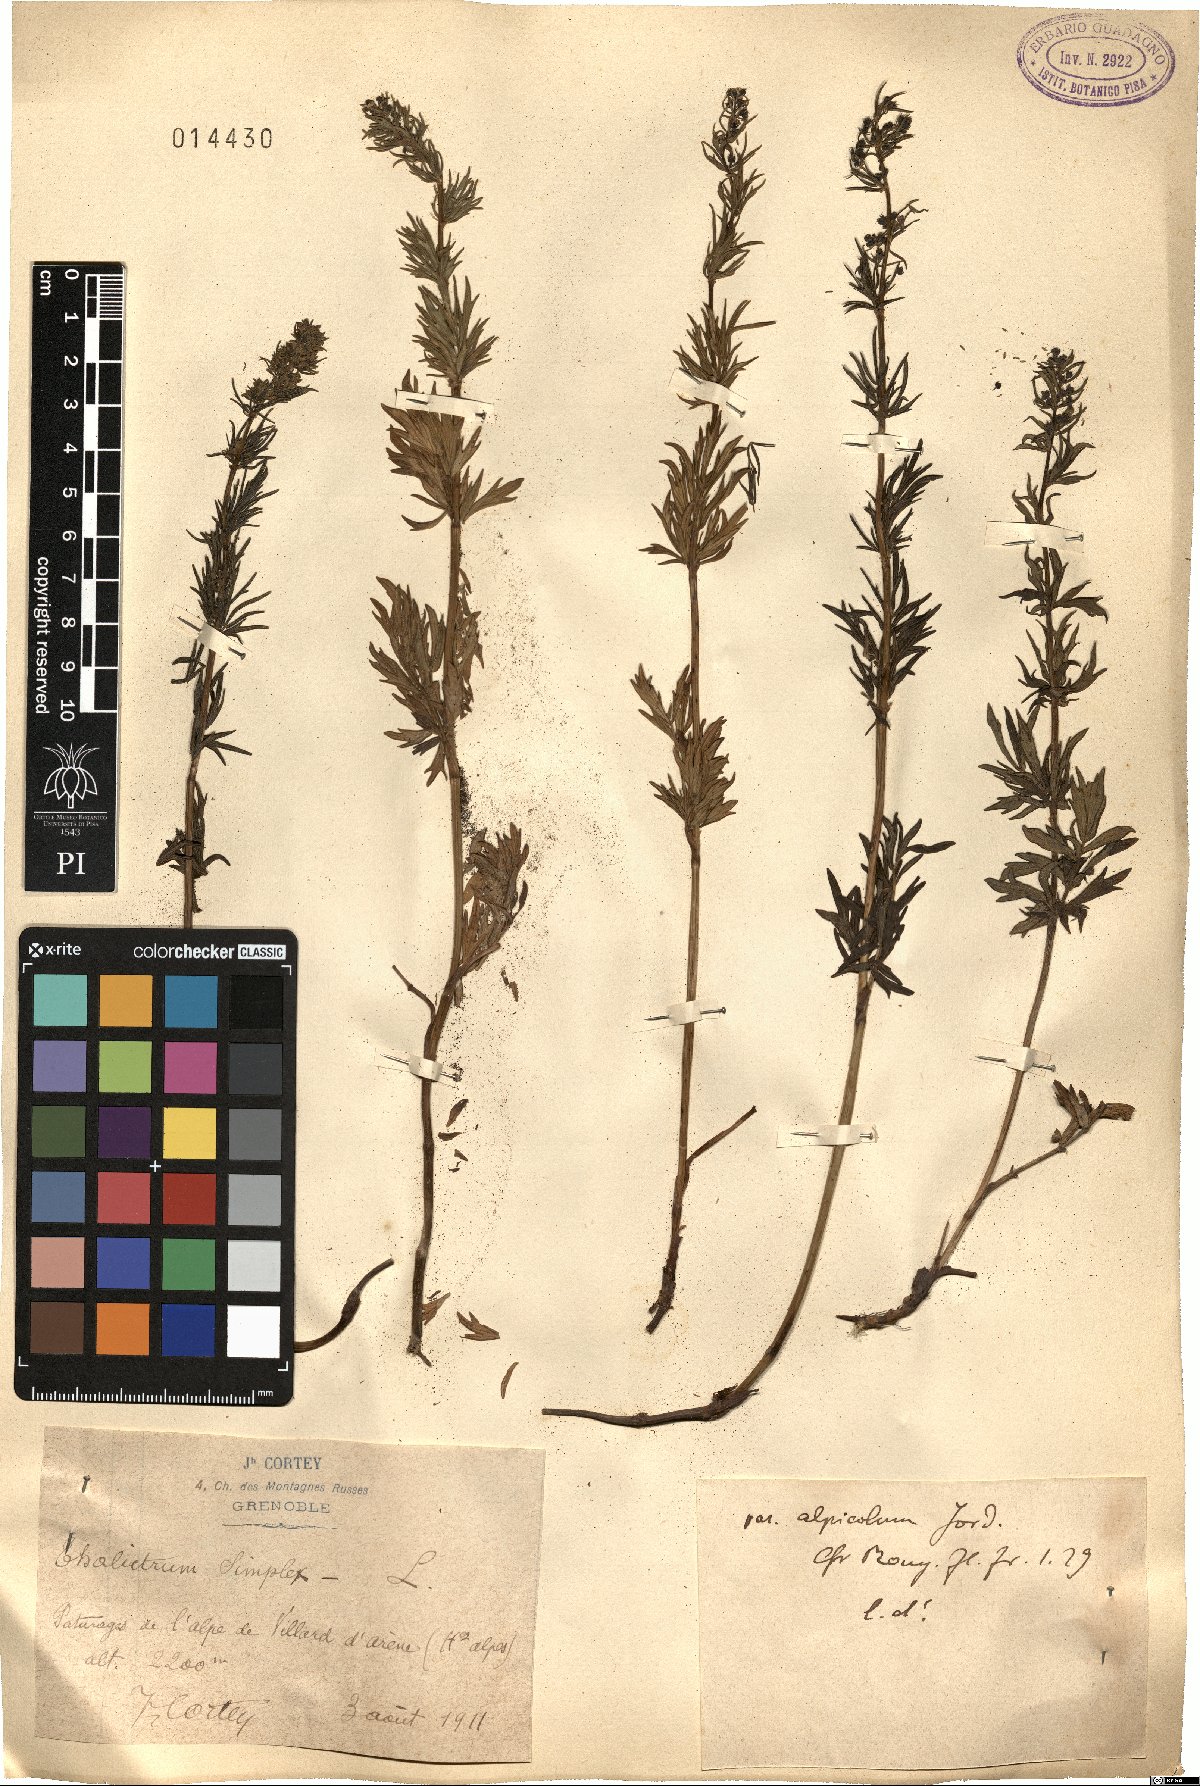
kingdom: Plantae
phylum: Tracheophyta
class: Magnoliopsida
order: Ranunculales
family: Ranunculaceae
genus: Thalictrum
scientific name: Thalictrum simplex
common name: Small meadow-rue
